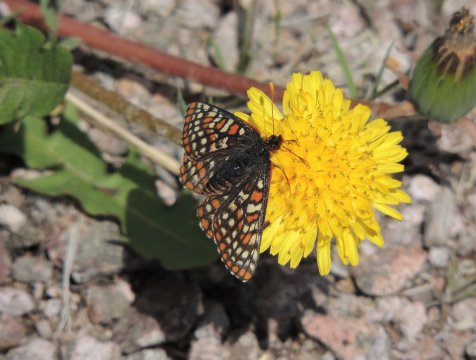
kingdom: Animalia
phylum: Arthropoda
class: Insecta
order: Lepidoptera
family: Nymphalidae
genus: Occidryas
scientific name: Occidryas anicia
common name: Anicia Checkerspot
